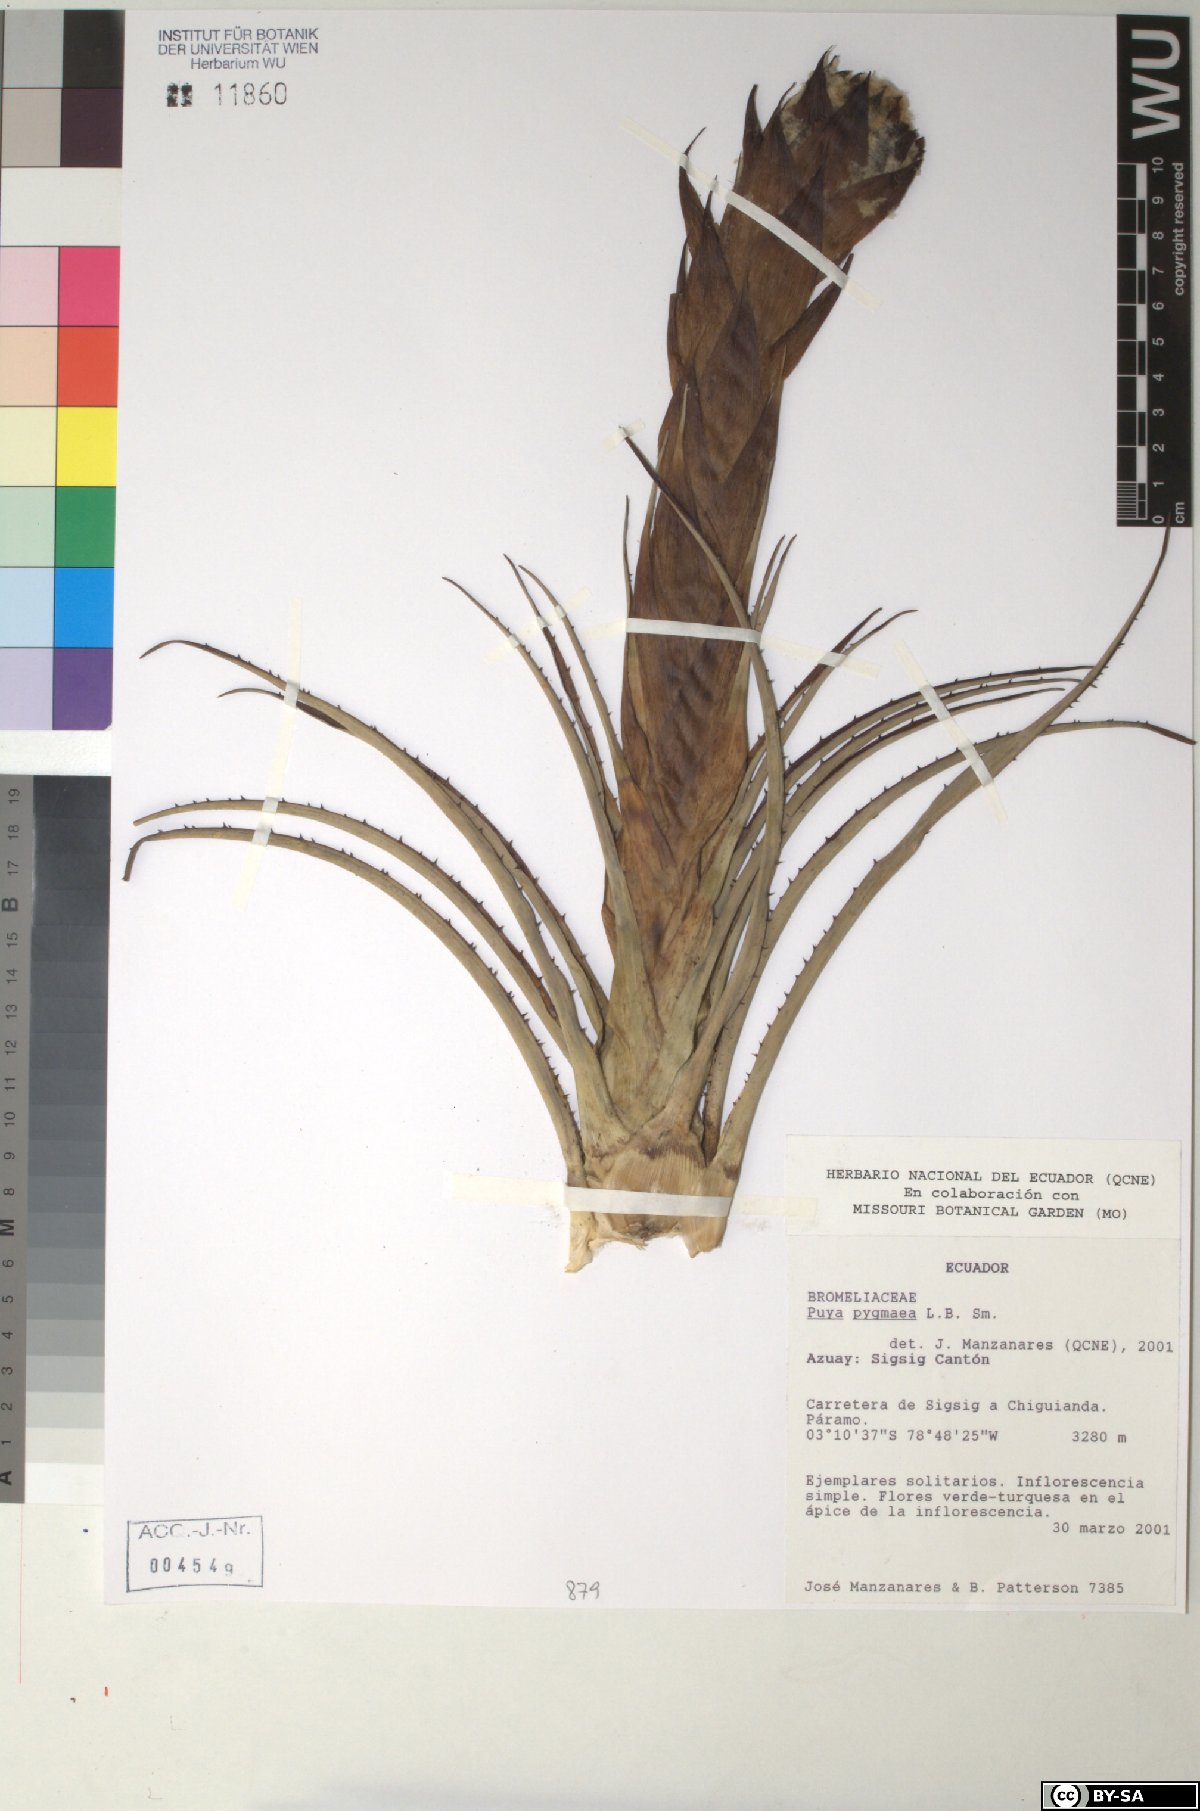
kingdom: Plantae
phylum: Tracheophyta
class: Liliopsida
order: Poales
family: Bromeliaceae
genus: Puya
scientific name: Puya pygmaea
